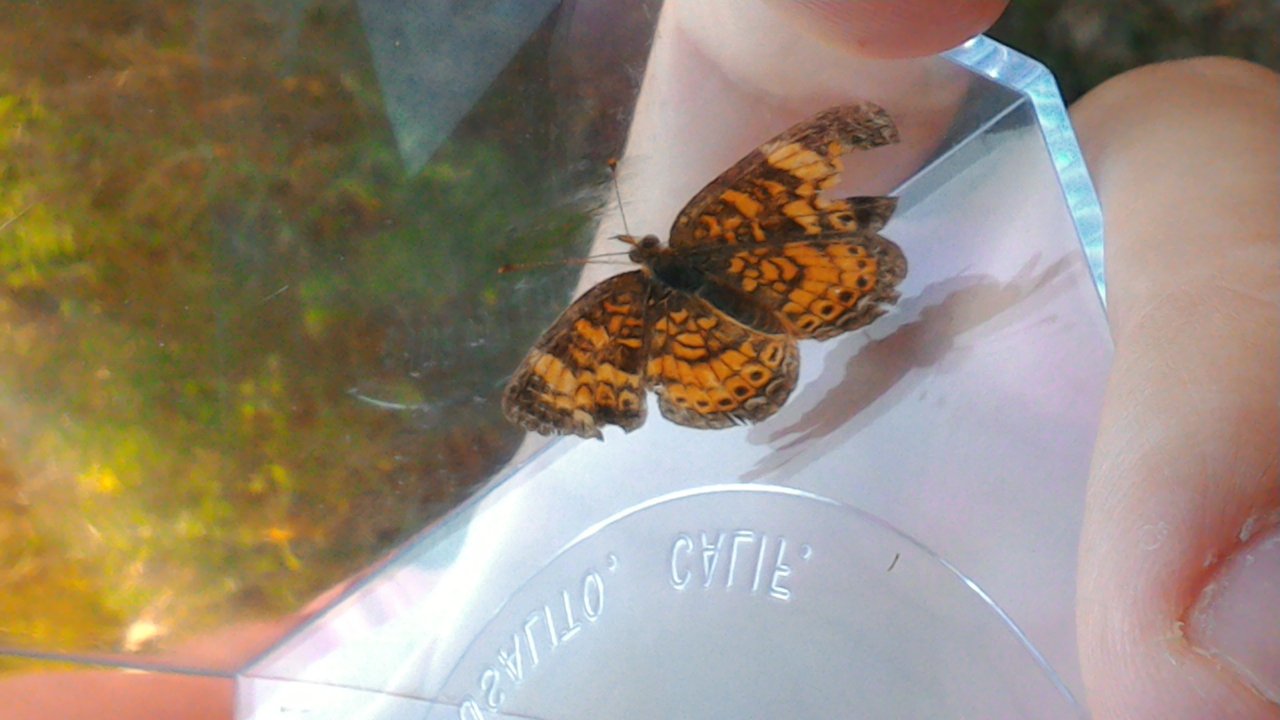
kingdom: Animalia
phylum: Arthropoda
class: Insecta
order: Lepidoptera
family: Nymphalidae
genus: Phyciodes
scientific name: Phyciodes tharos
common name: Pearl Crescent
